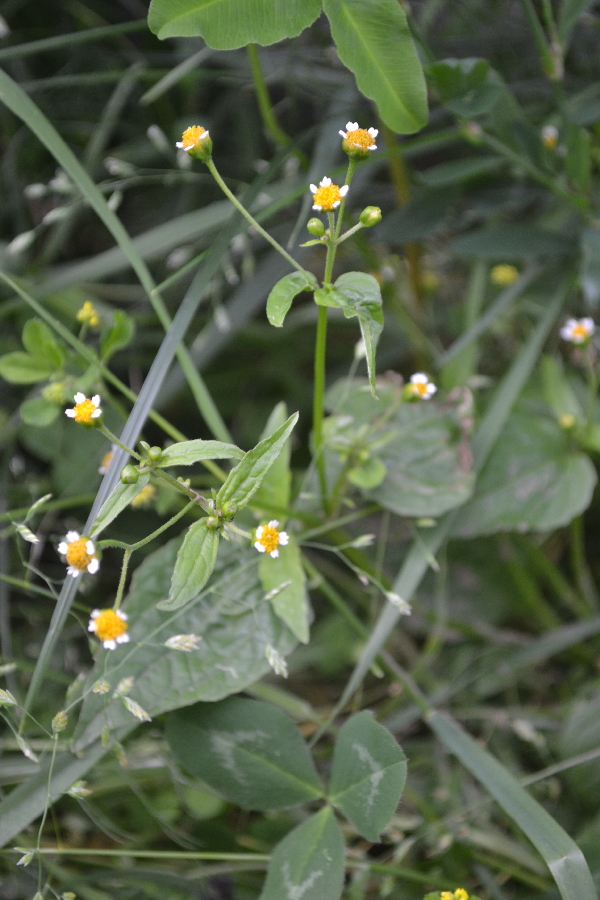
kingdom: Plantae
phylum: Tracheophyta
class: Magnoliopsida
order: Asterales
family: Asteraceae
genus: Galinsoga
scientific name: Galinsoga quadriradiata
